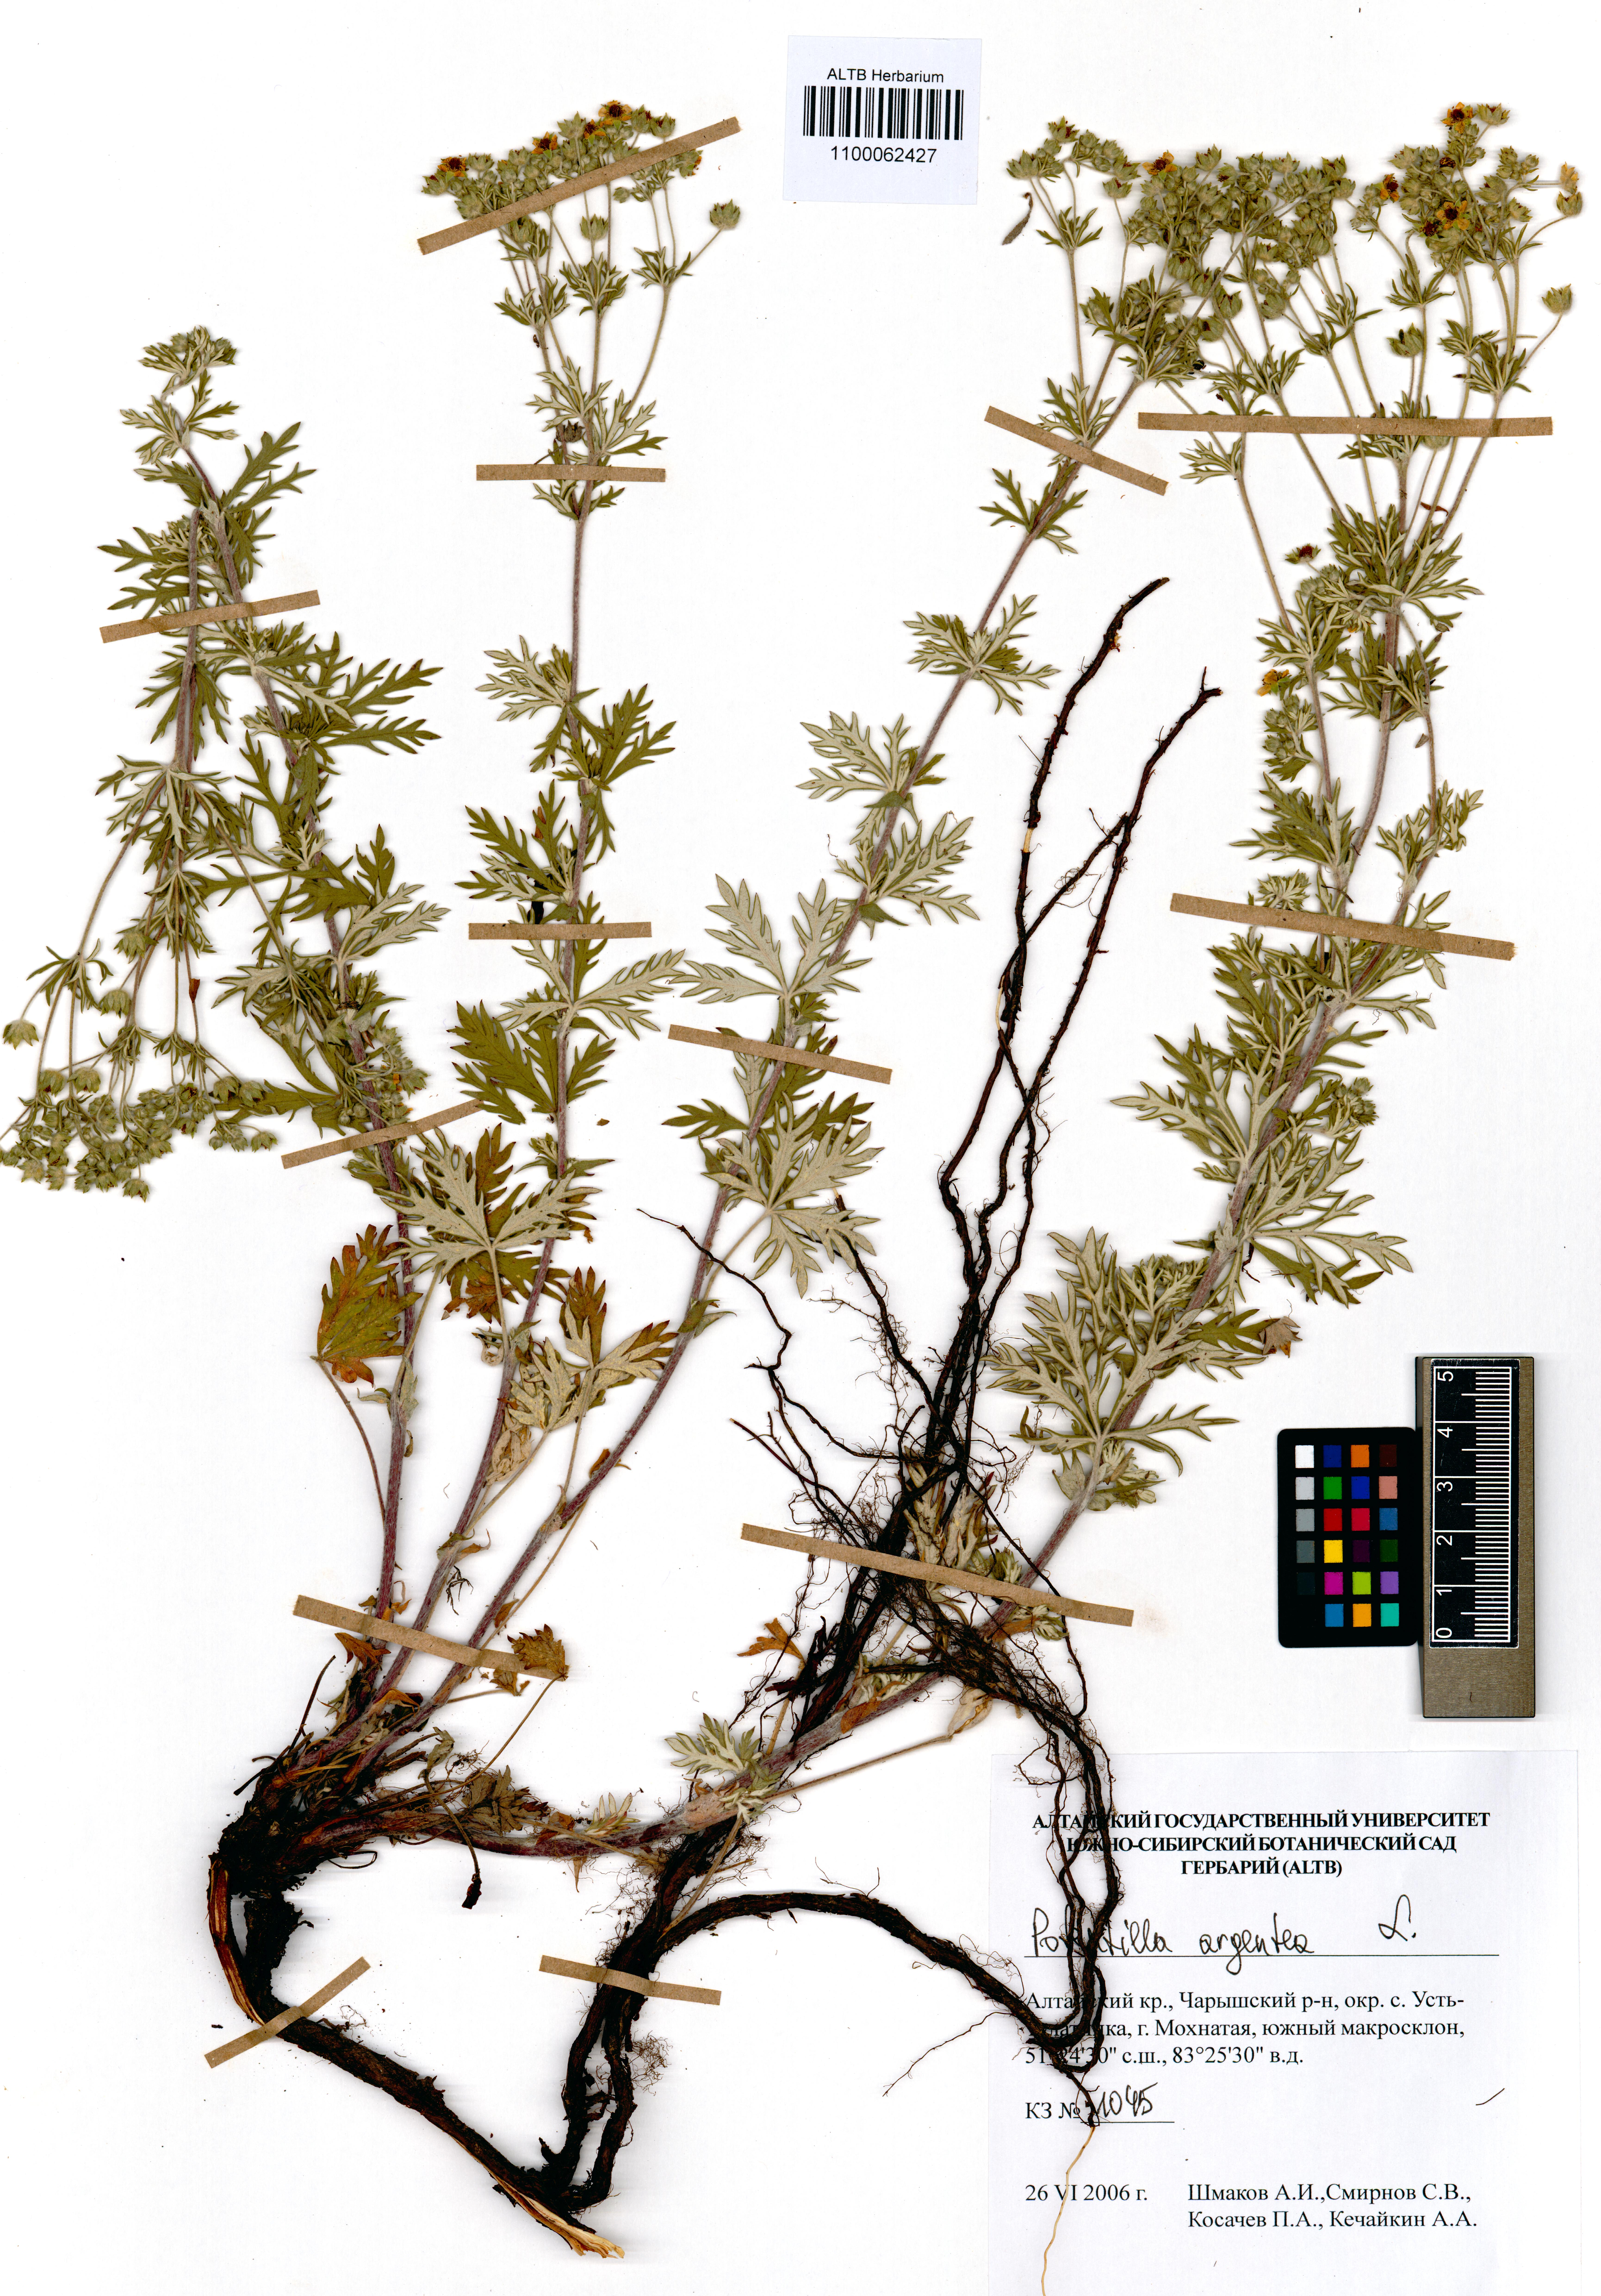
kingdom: Plantae
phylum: Tracheophyta
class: Magnoliopsida
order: Rosales
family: Rosaceae
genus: Potentilla
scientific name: Potentilla argentea
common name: Hoary cinquefoil
